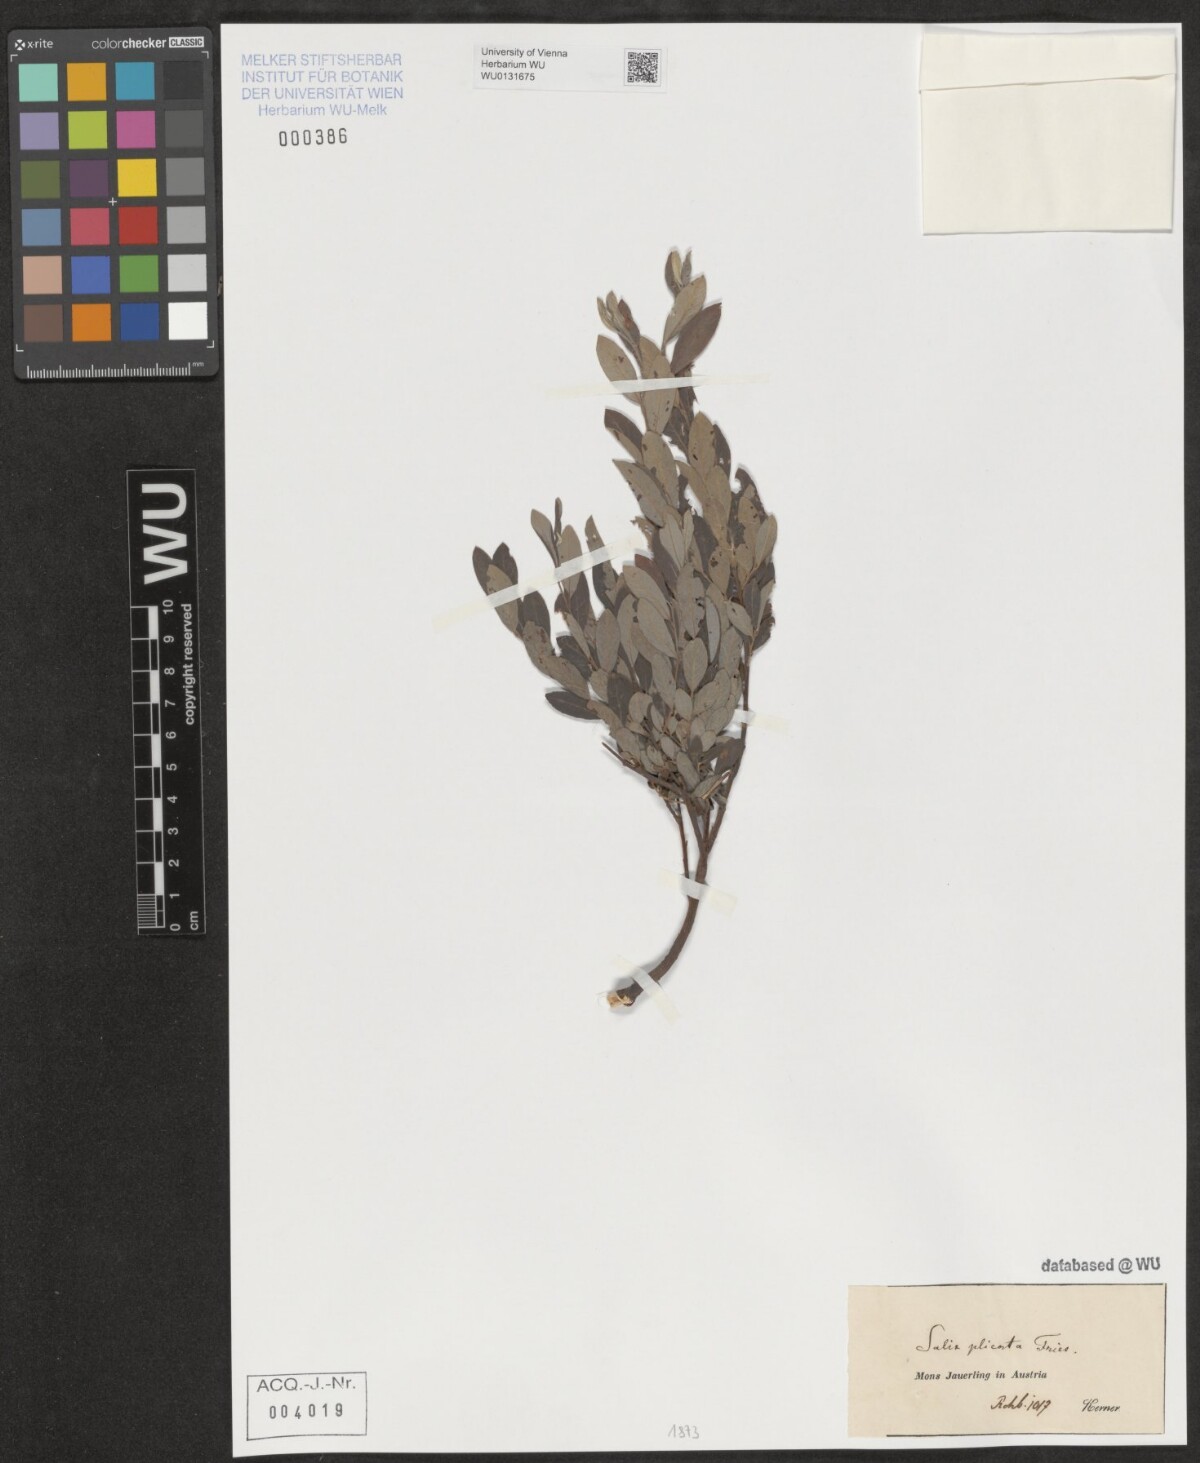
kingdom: Plantae
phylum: Tracheophyta
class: Magnoliopsida
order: Malpighiales
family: Salicaceae
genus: Salix
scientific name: Salix plicata
